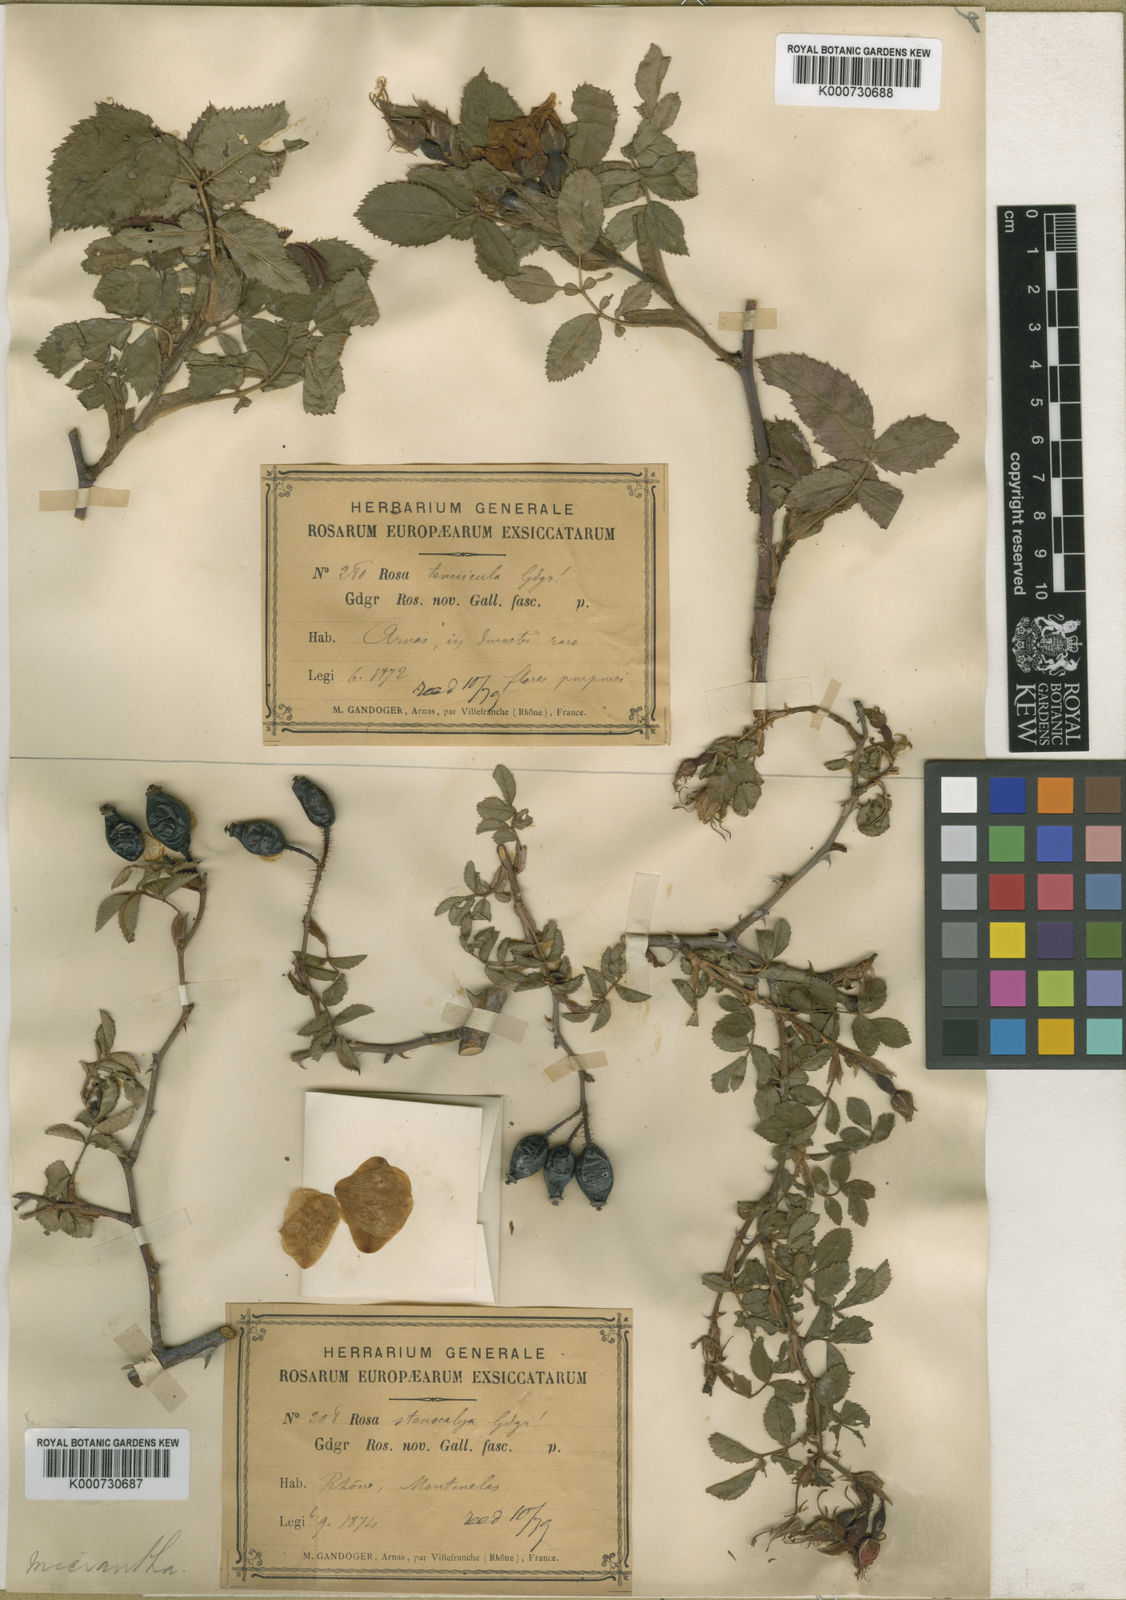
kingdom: Plantae
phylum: Tracheophyta
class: Magnoliopsida
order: Rosales
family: Rosaceae
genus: Rosa
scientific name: Rosa
